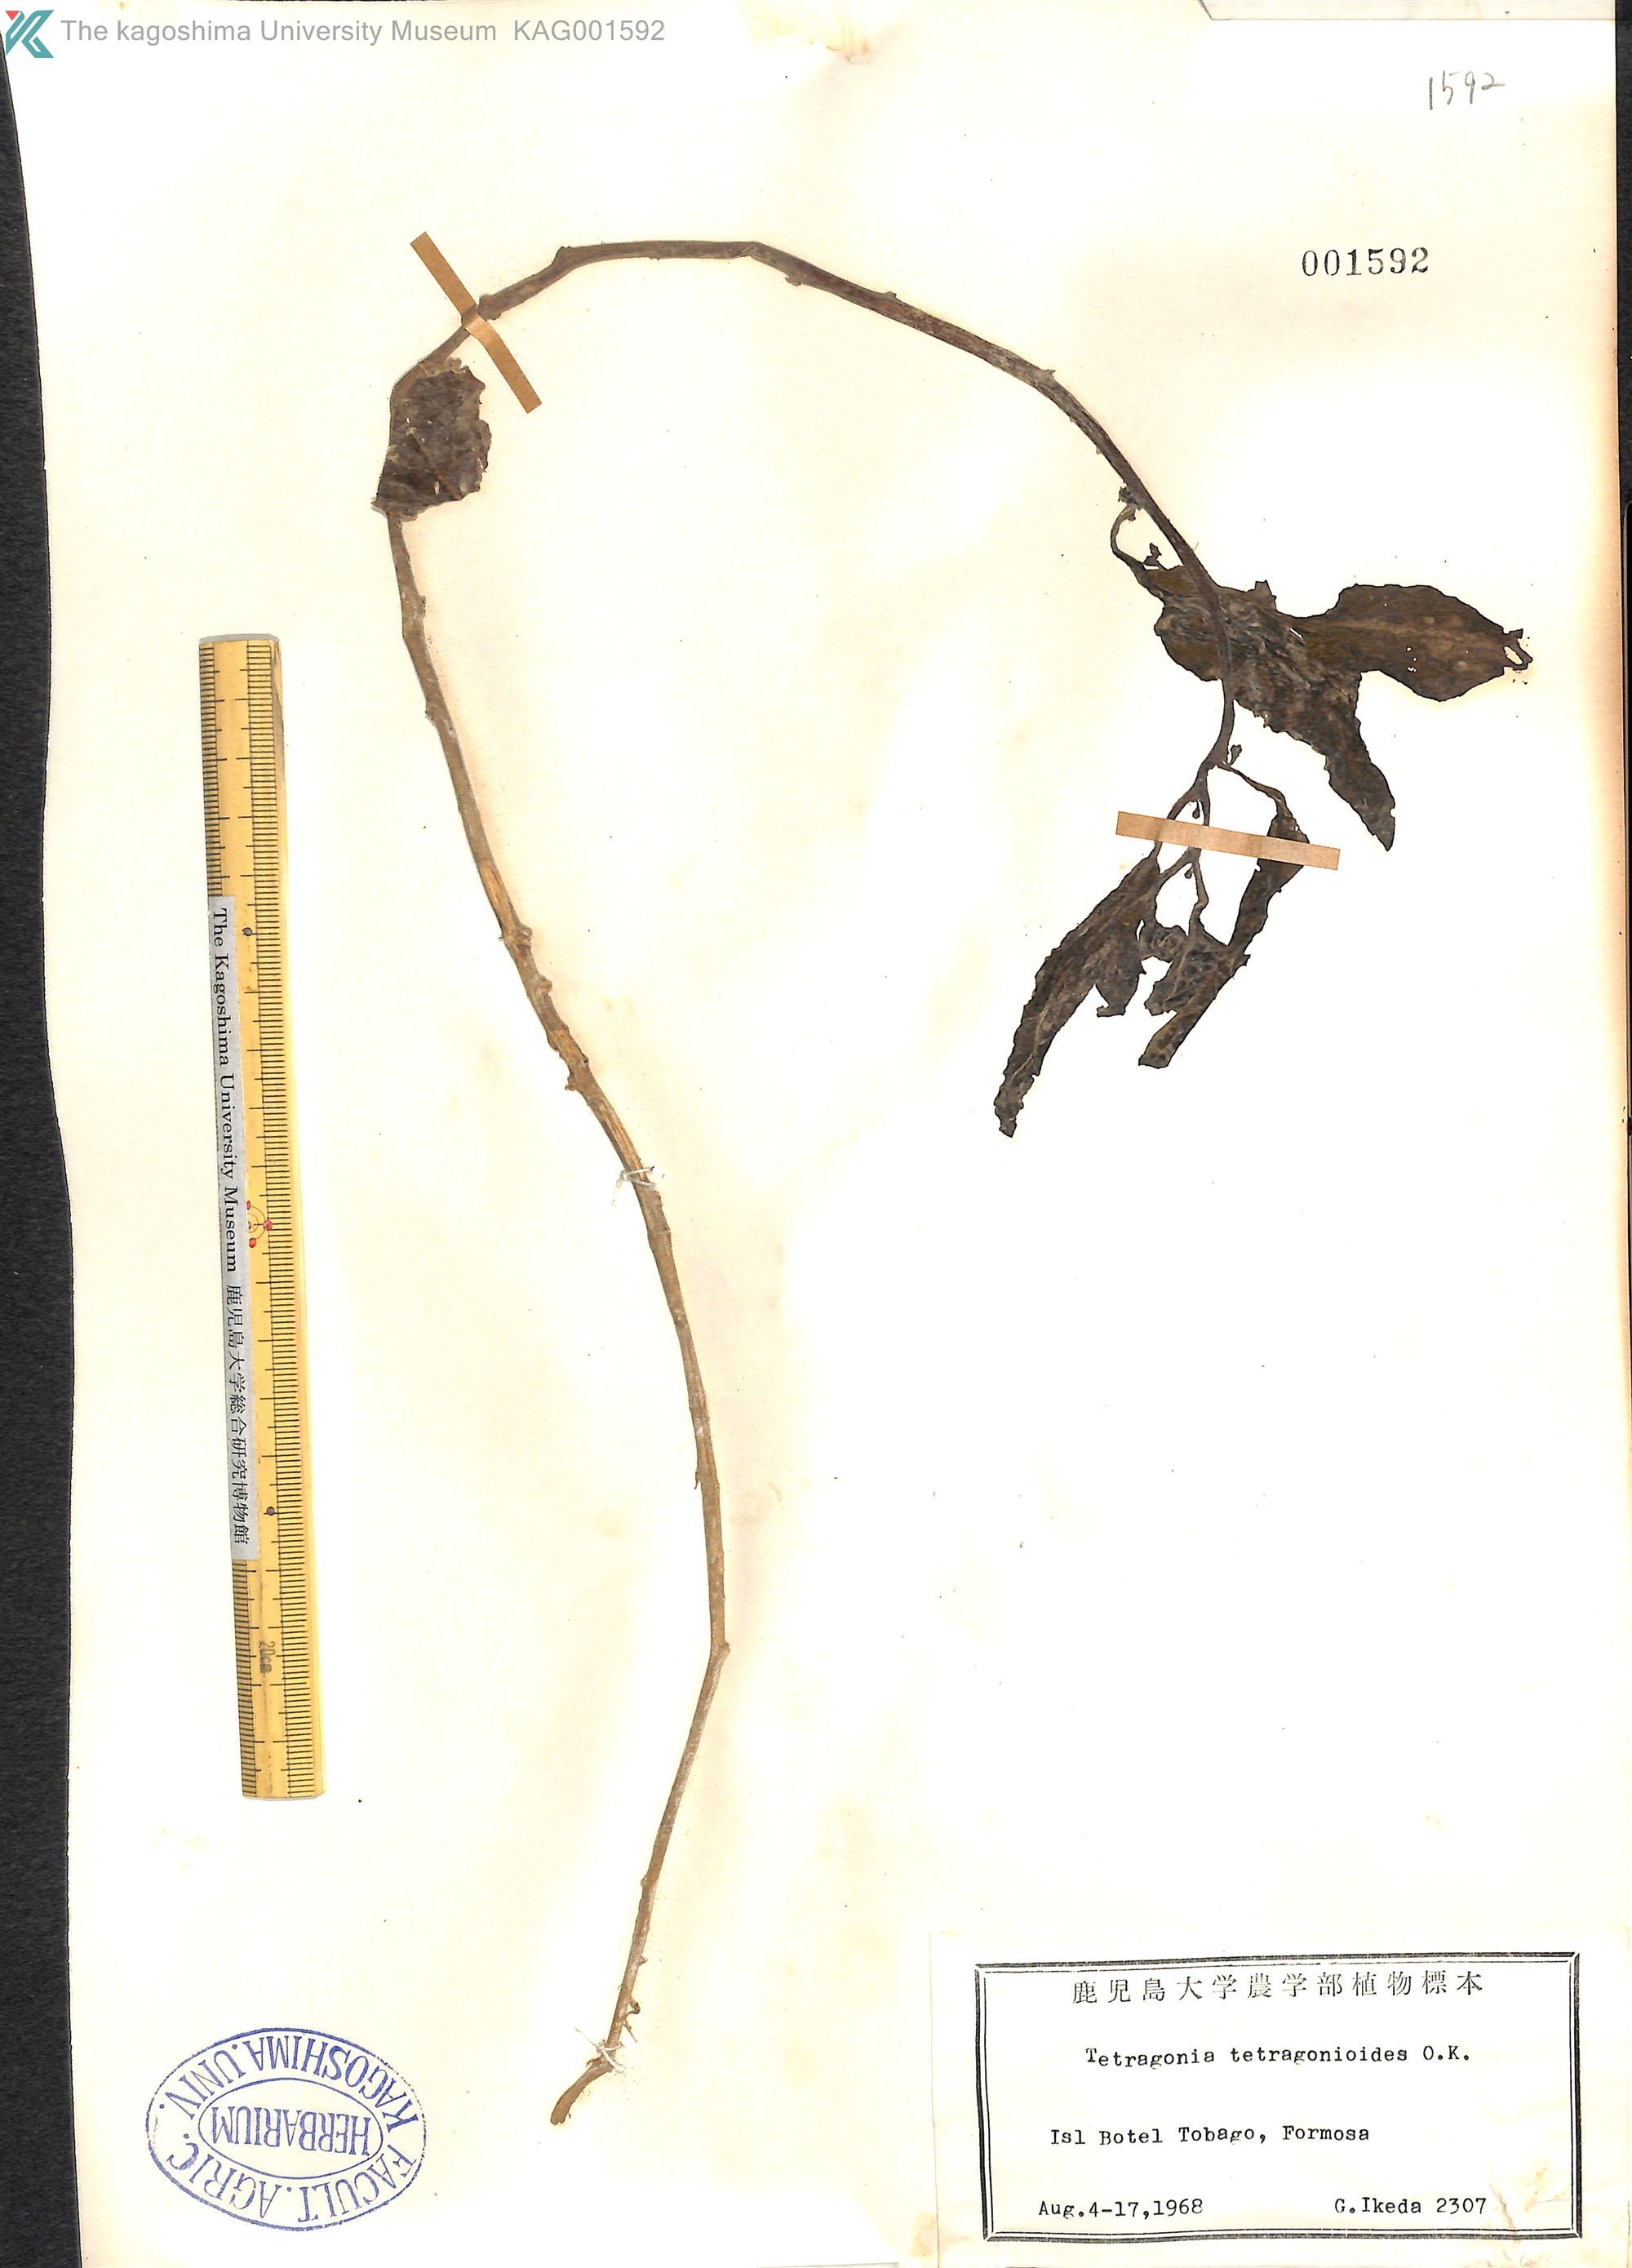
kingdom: Plantae
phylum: Tracheophyta
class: Magnoliopsida
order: Caryophyllales
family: Aizoaceae
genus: Tetragonia
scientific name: Tetragonia tetragonoides
